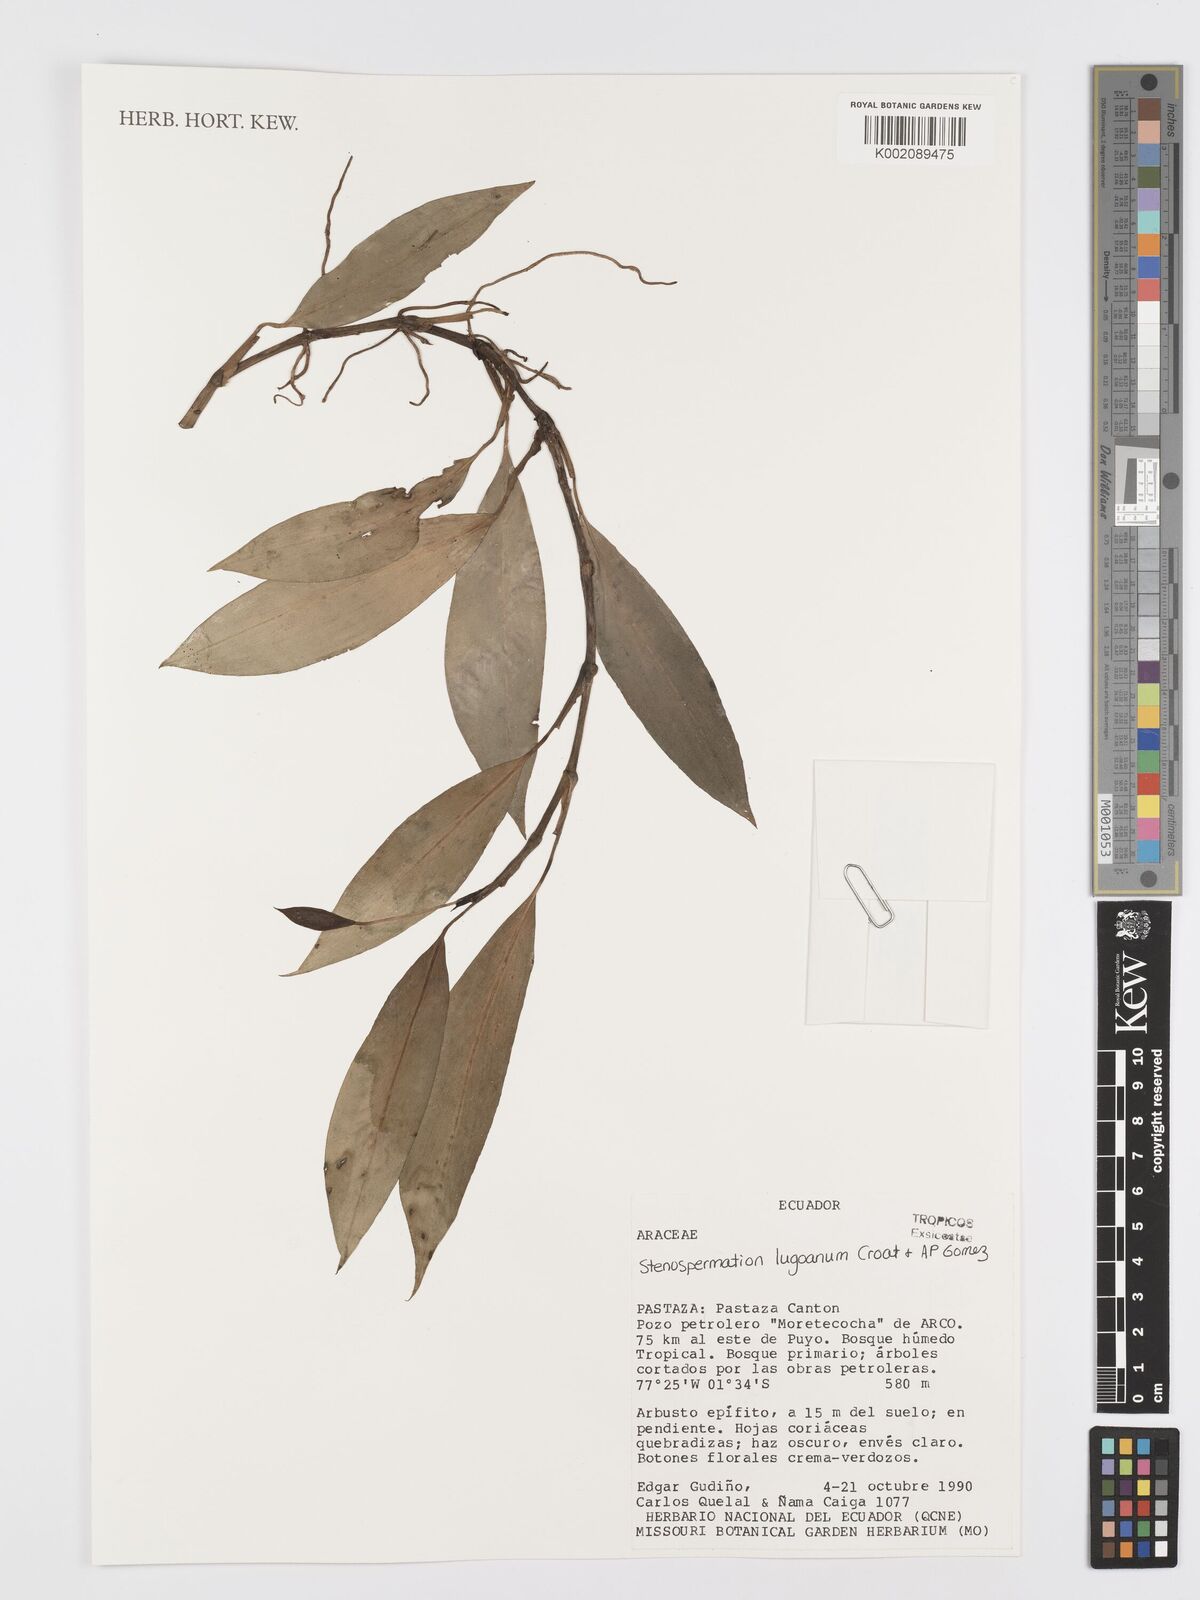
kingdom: Plantae
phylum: Tracheophyta
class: Liliopsida
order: Alismatales
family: Araceae
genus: Stenospermation
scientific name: Stenospermation
